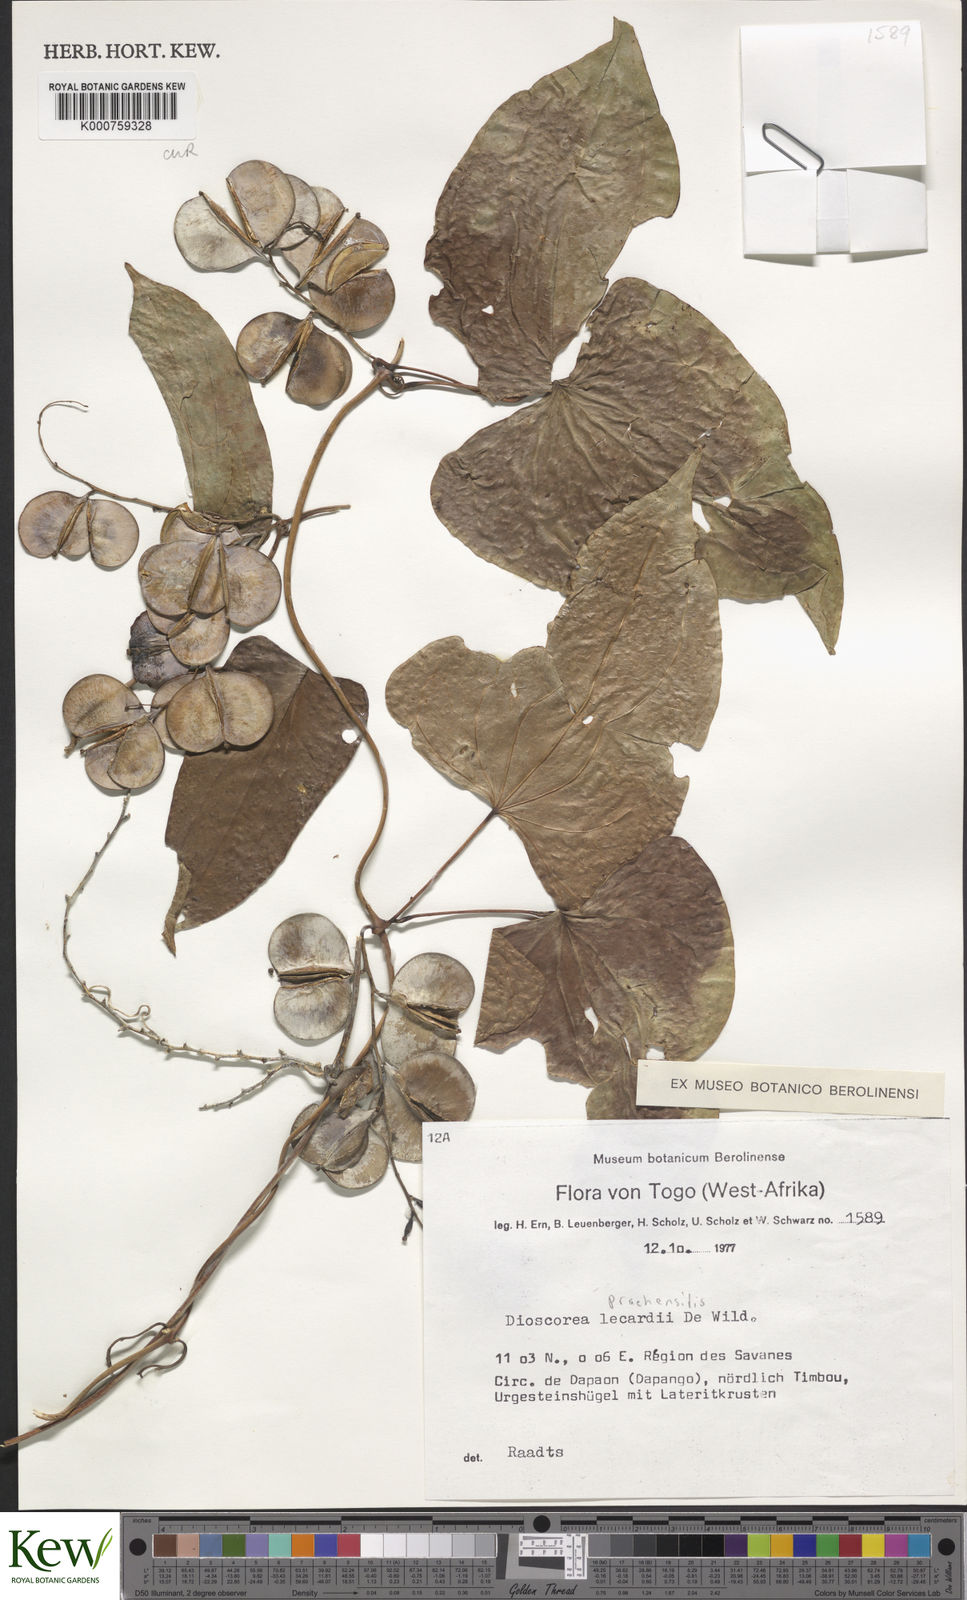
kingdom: Plantae
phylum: Tracheophyta
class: Liliopsida
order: Dioscoreales
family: Dioscoreaceae
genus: Dioscorea
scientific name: Dioscorea praehensilis
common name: Bush yam
